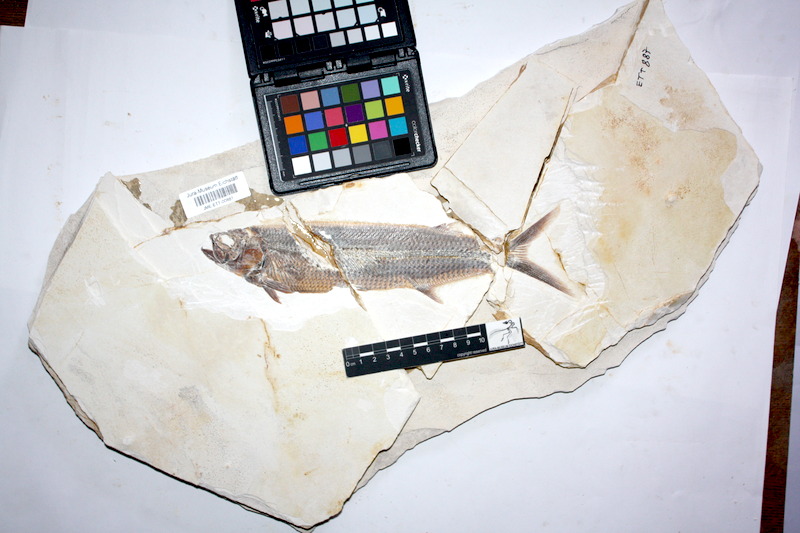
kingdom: Animalia
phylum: Chordata
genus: Thrissops
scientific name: Thrissops formosus
